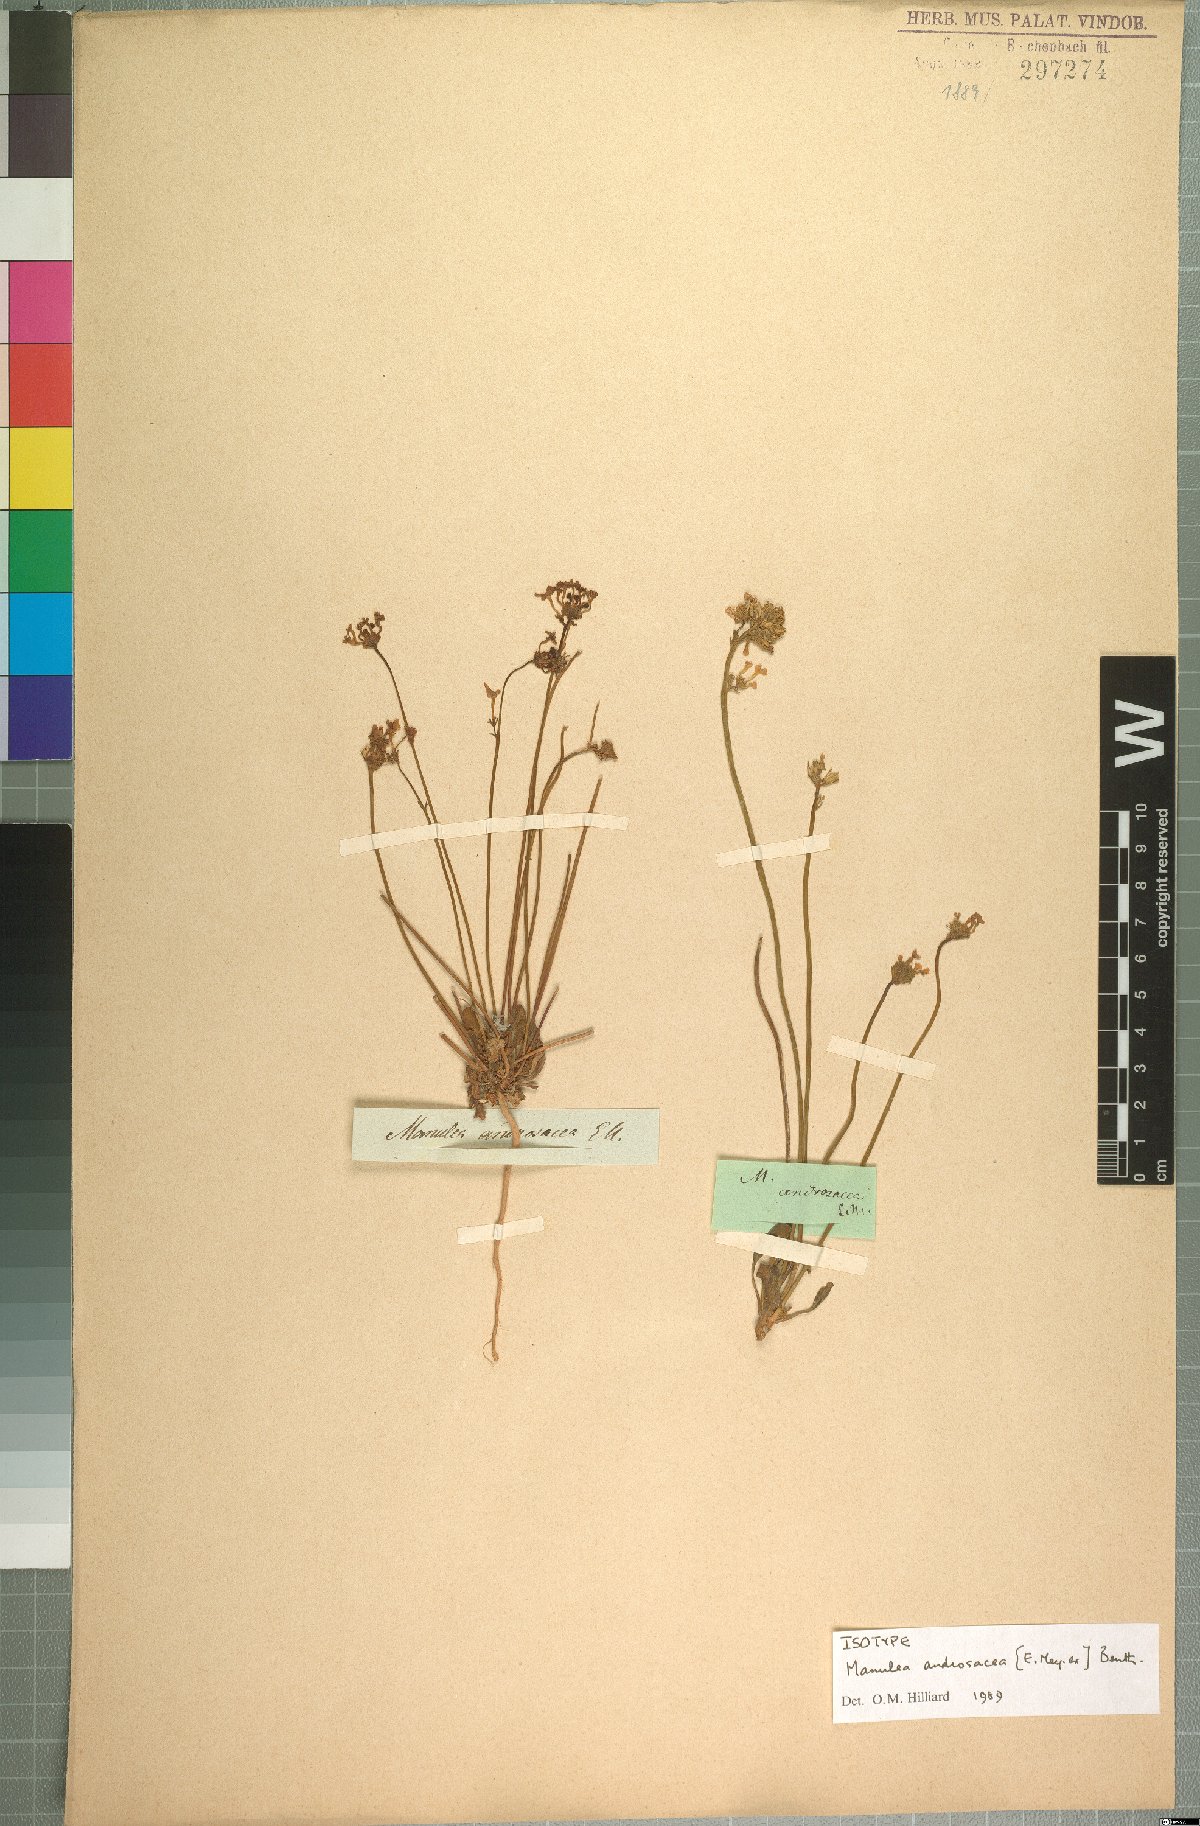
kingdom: Plantae
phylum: Tracheophyta
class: Magnoliopsida
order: Lamiales
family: Scrophulariaceae
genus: Manulea
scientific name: Manulea androsacea
